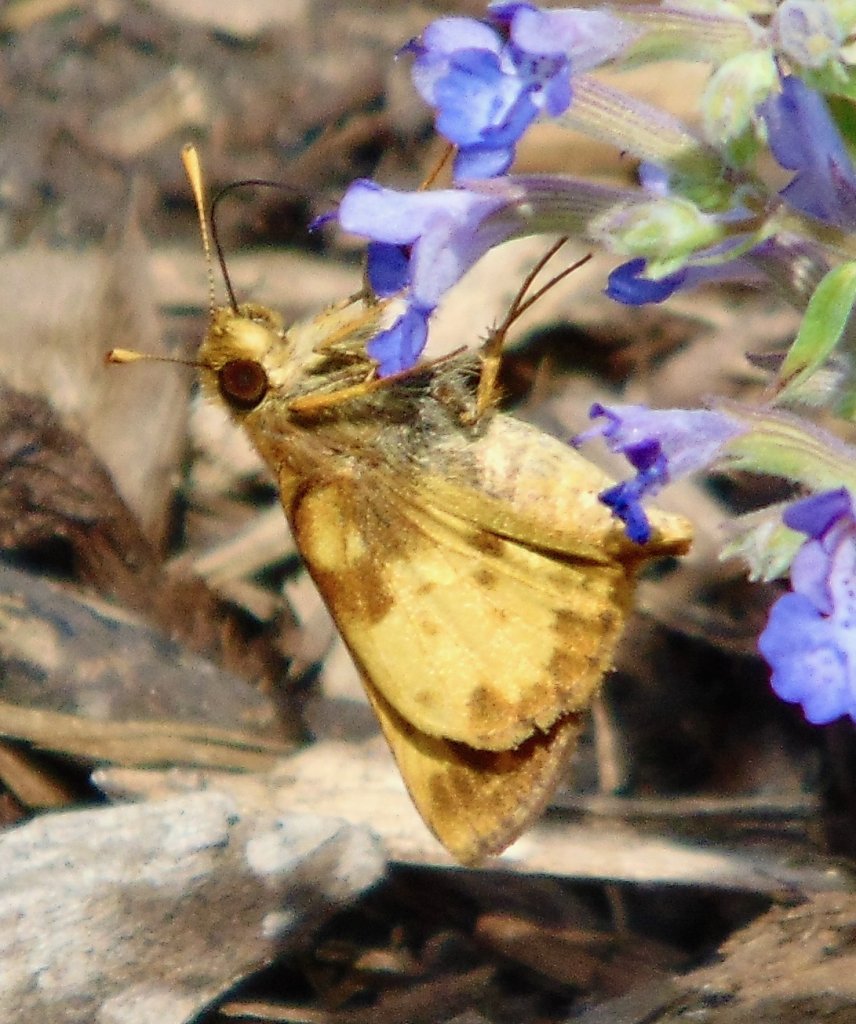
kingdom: Animalia
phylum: Arthropoda
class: Insecta
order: Lepidoptera
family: Hesperiidae
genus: Lon
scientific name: Lon zabulon
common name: Zabulon Skipper
